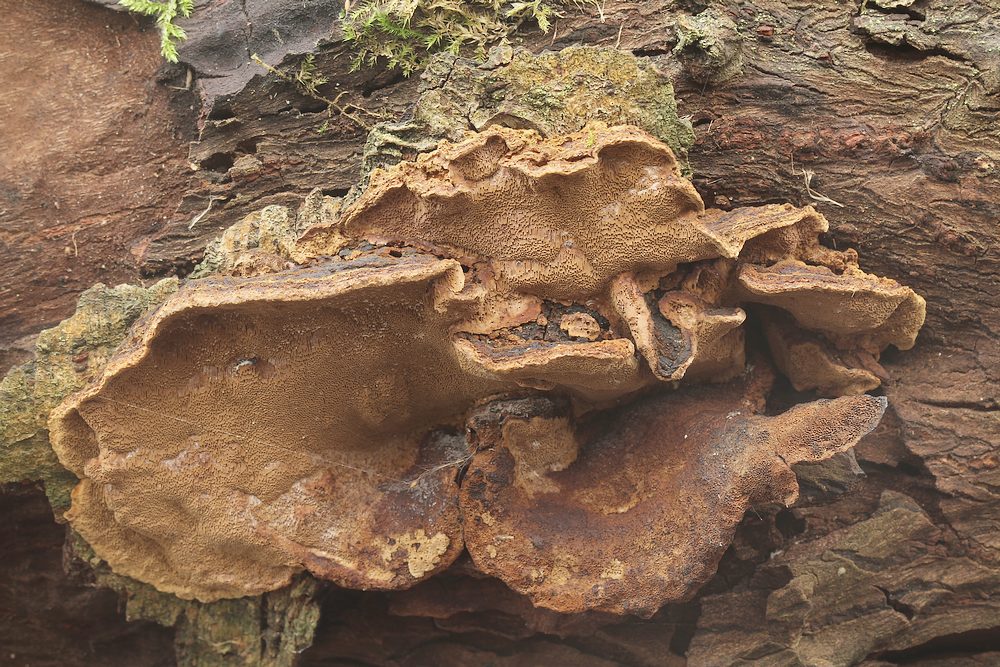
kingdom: Fungi
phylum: Basidiomycota
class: Agaricomycetes
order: Hymenochaetales
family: Hymenochaetaceae
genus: Phellinopsis
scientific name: Phellinopsis conchata
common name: pile-ildporesvamp
